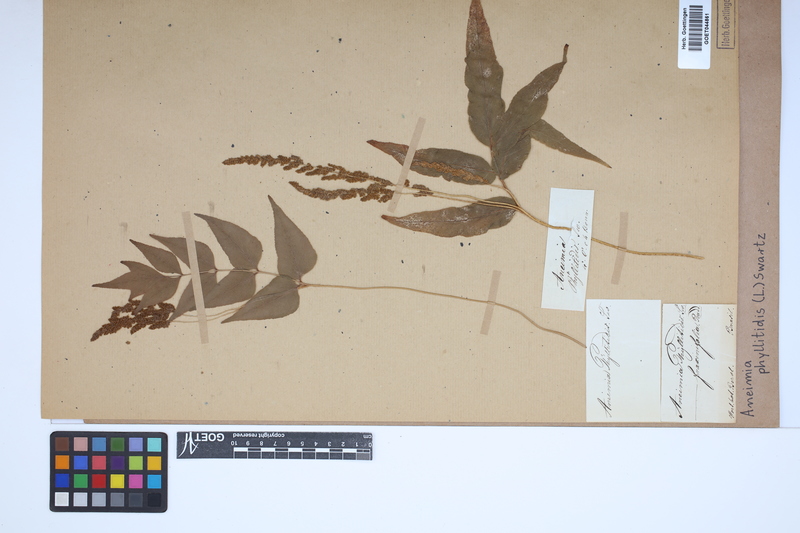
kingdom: Plantae
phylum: Tracheophyta
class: Polypodiopsida
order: Schizaeales
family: Anemiaceae
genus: Anemia
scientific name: Anemia phyllitidis
